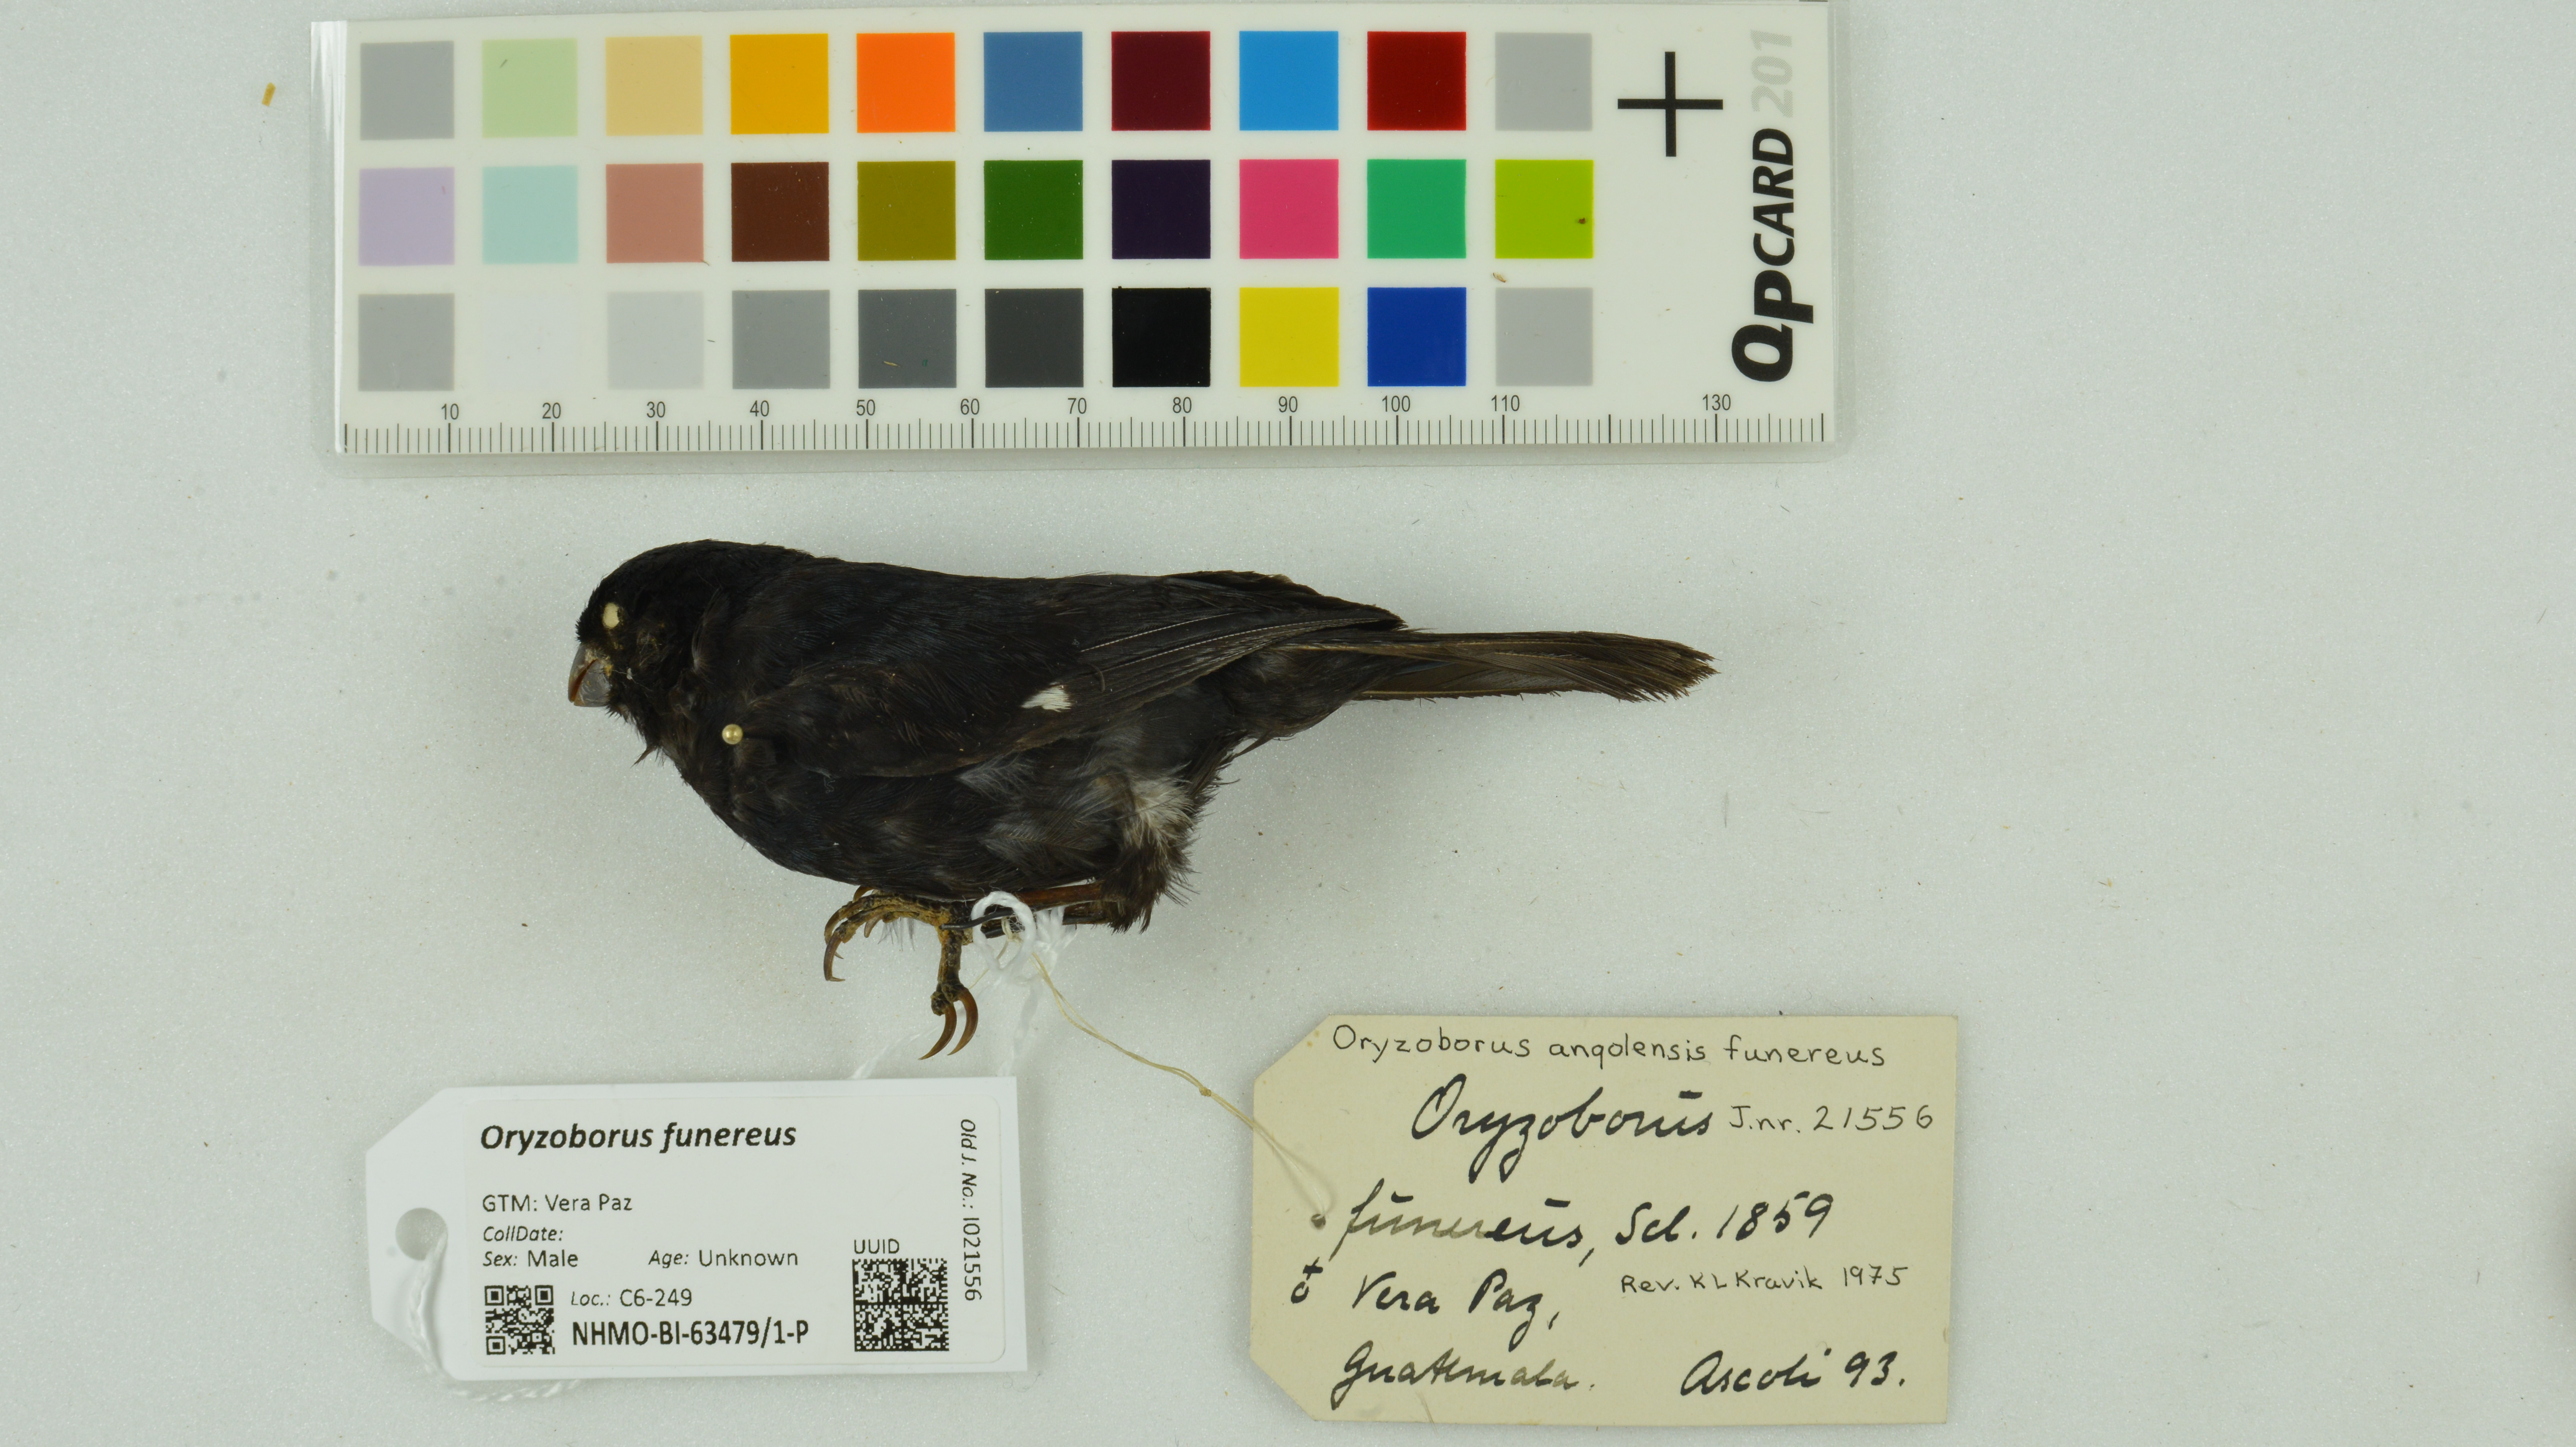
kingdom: Animalia
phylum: Chordata
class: Aves
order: Passeriformes
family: Thraupidae
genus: Sporophila
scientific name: Sporophila funerea
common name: Thick-billed seed-finch
